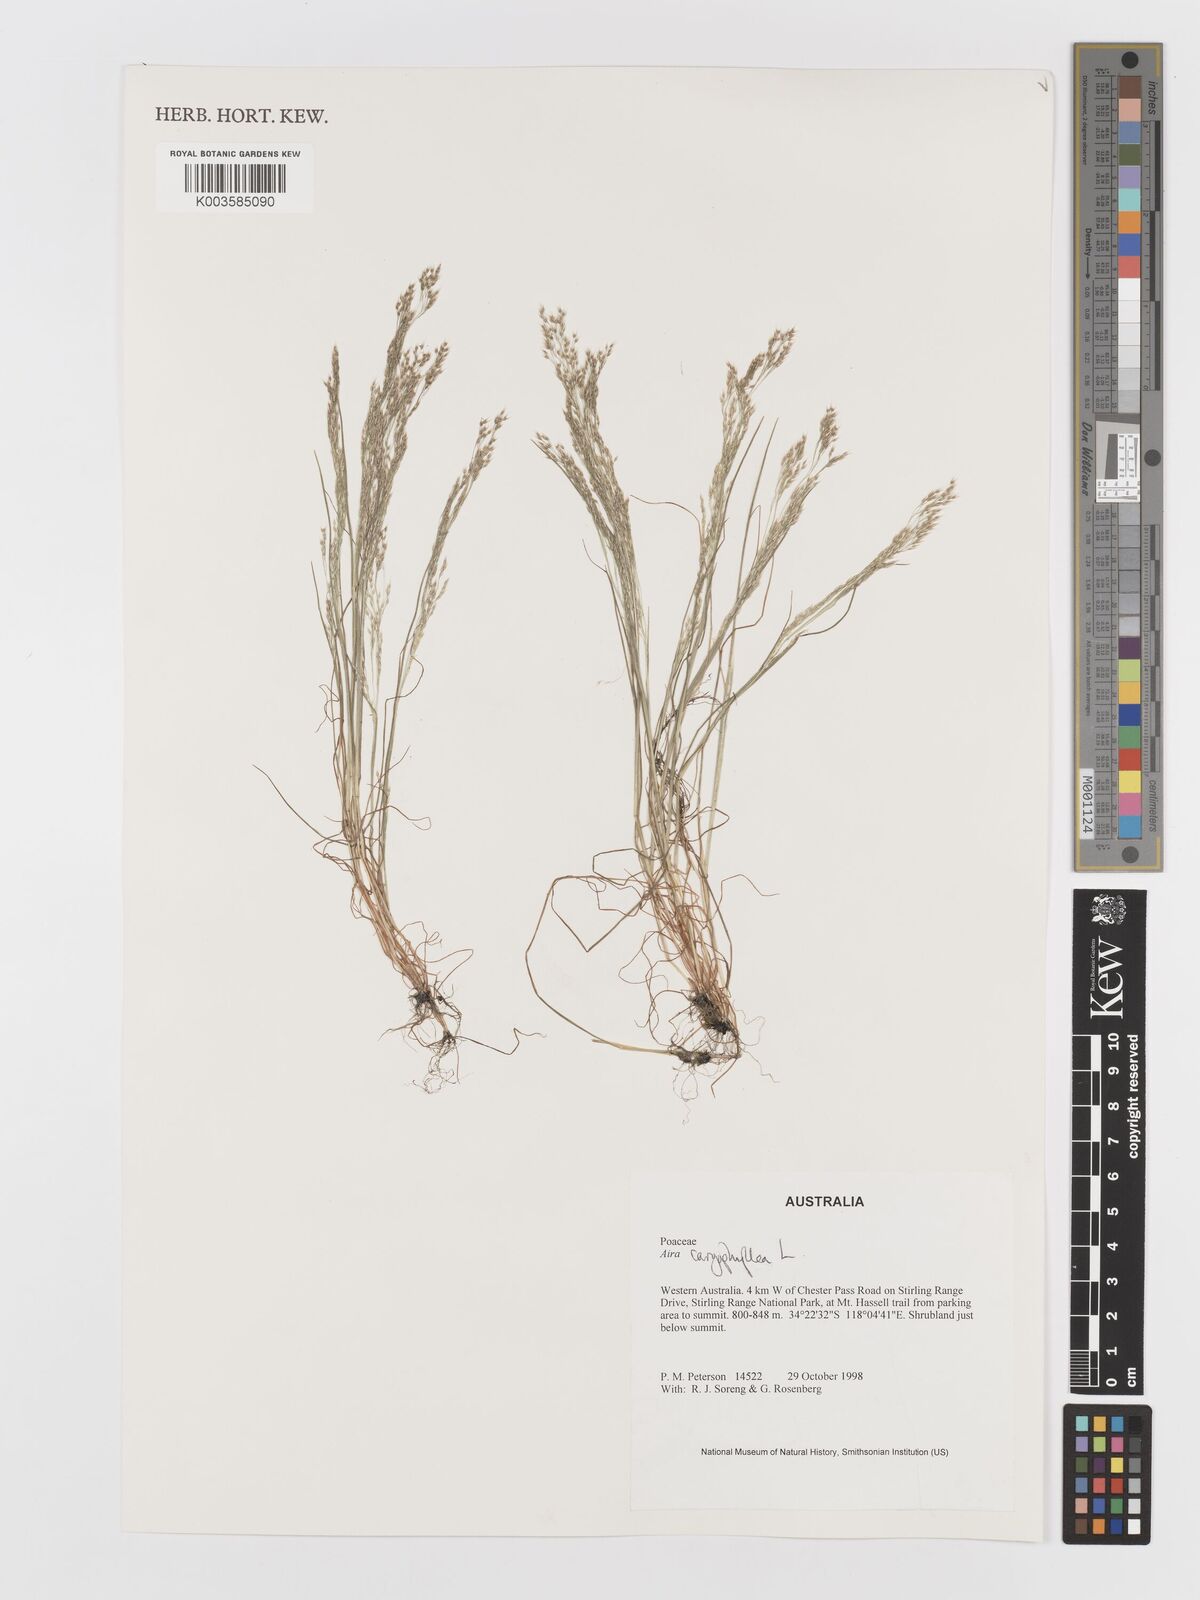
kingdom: Plantae
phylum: Tracheophyta
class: Liliopsida
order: Poales
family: Poaceae
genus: Aira
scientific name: Aira caryophyllea
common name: Silver hairgrass
